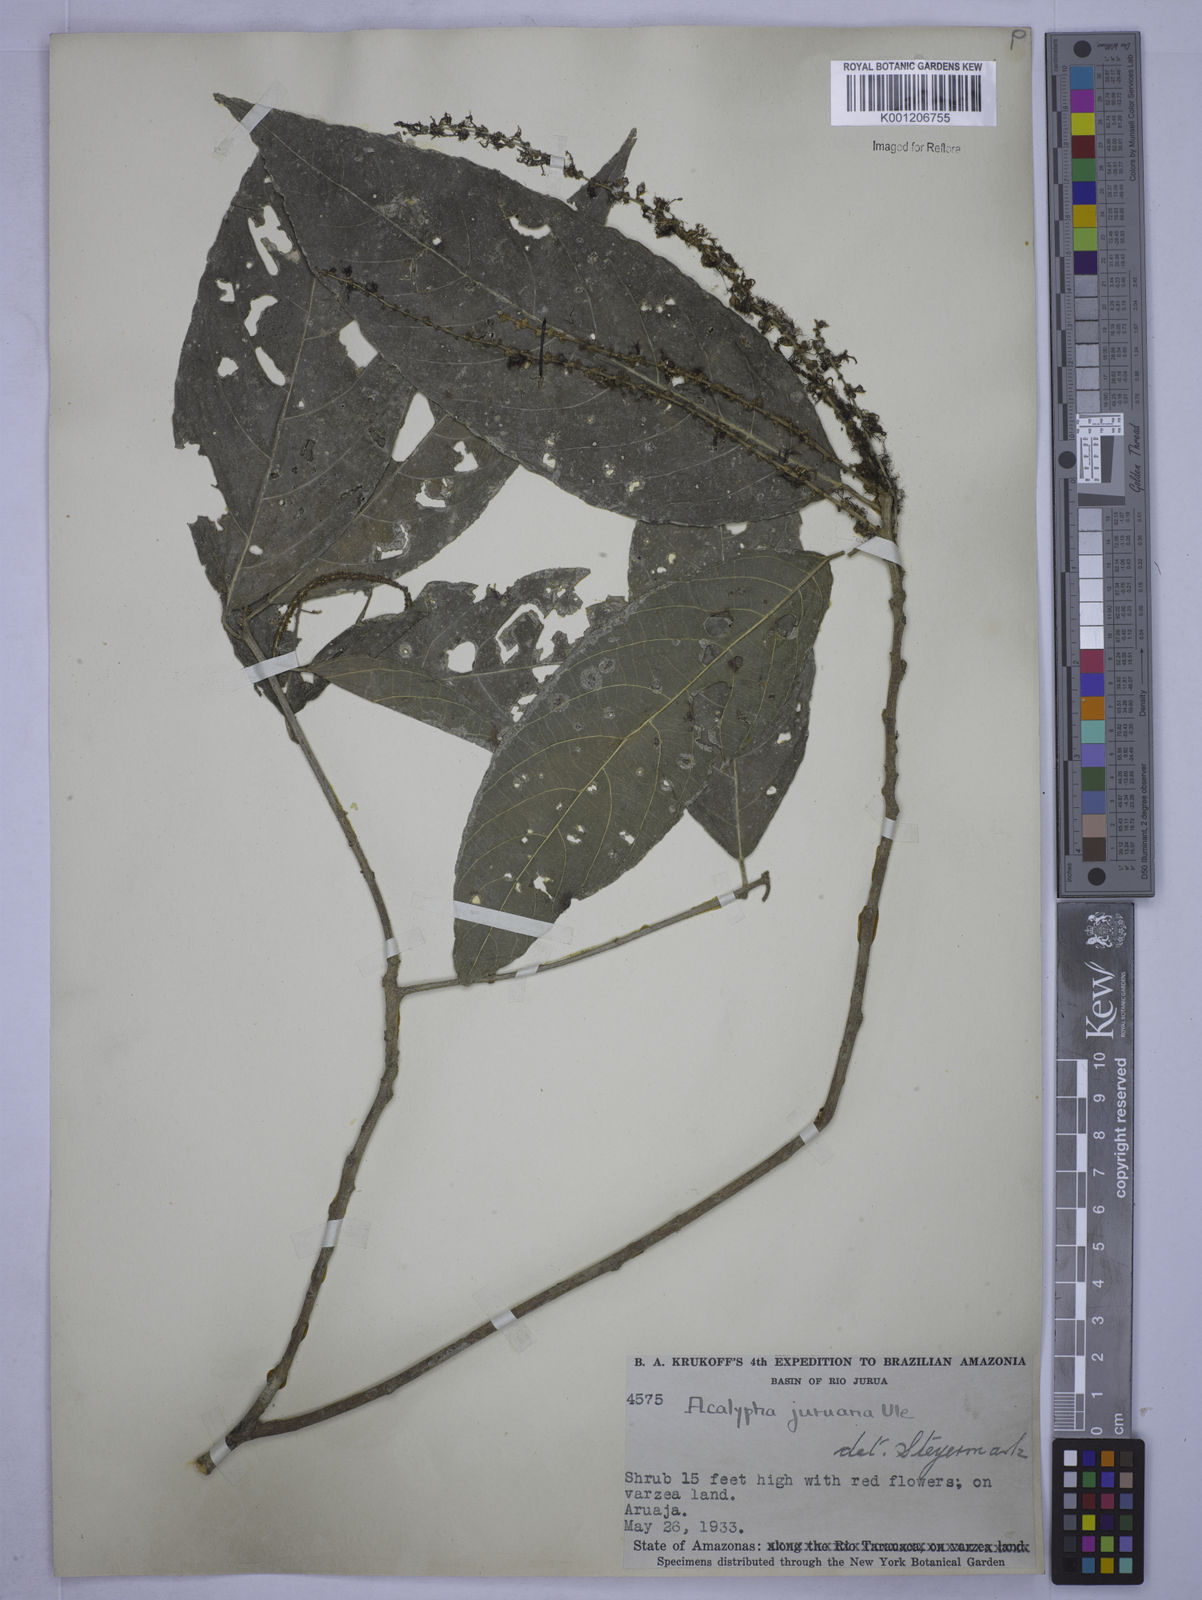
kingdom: Plantae
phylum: Tracheophyta
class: Magnoliopsida
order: Malpighiales
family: Euphorbiaceae
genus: Acalypha
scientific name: Acalypha juruana
